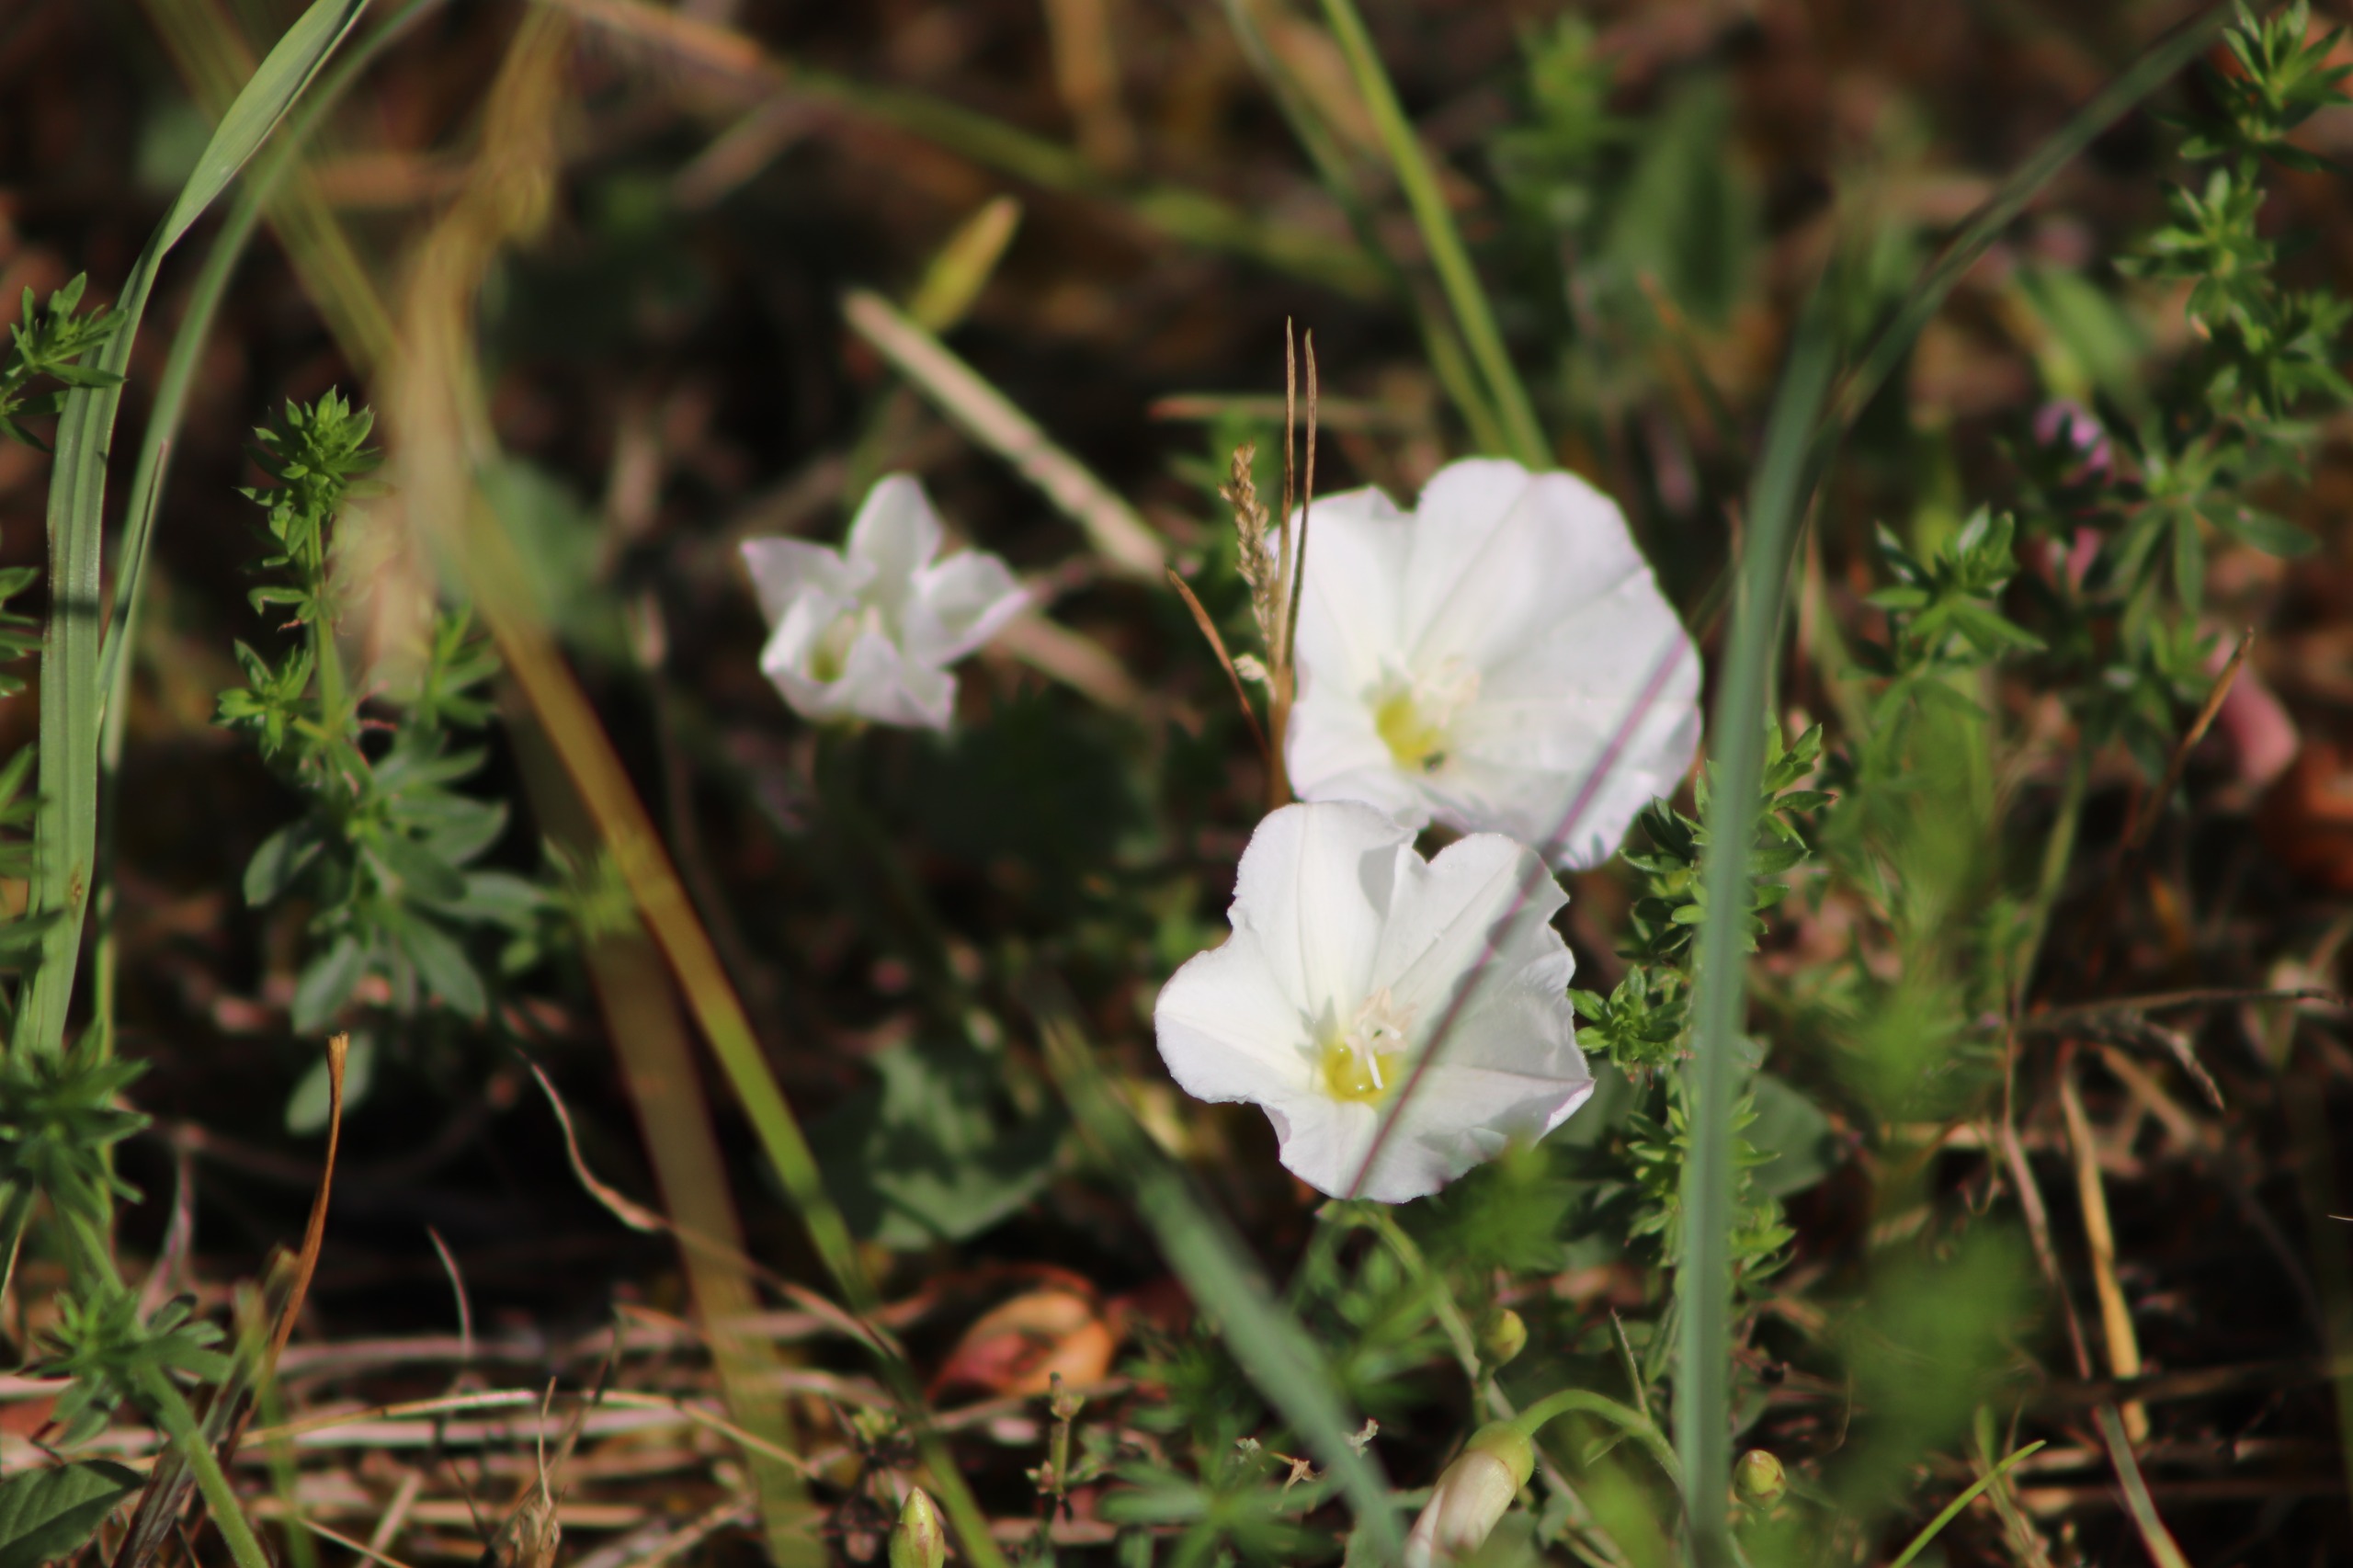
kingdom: Plantae
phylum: Tracheophyta
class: Magnoliopsida
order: Solanales
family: Convolvulaceae
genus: Convolvulus
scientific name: Convolvulus arvensis
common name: Ager-snerle
